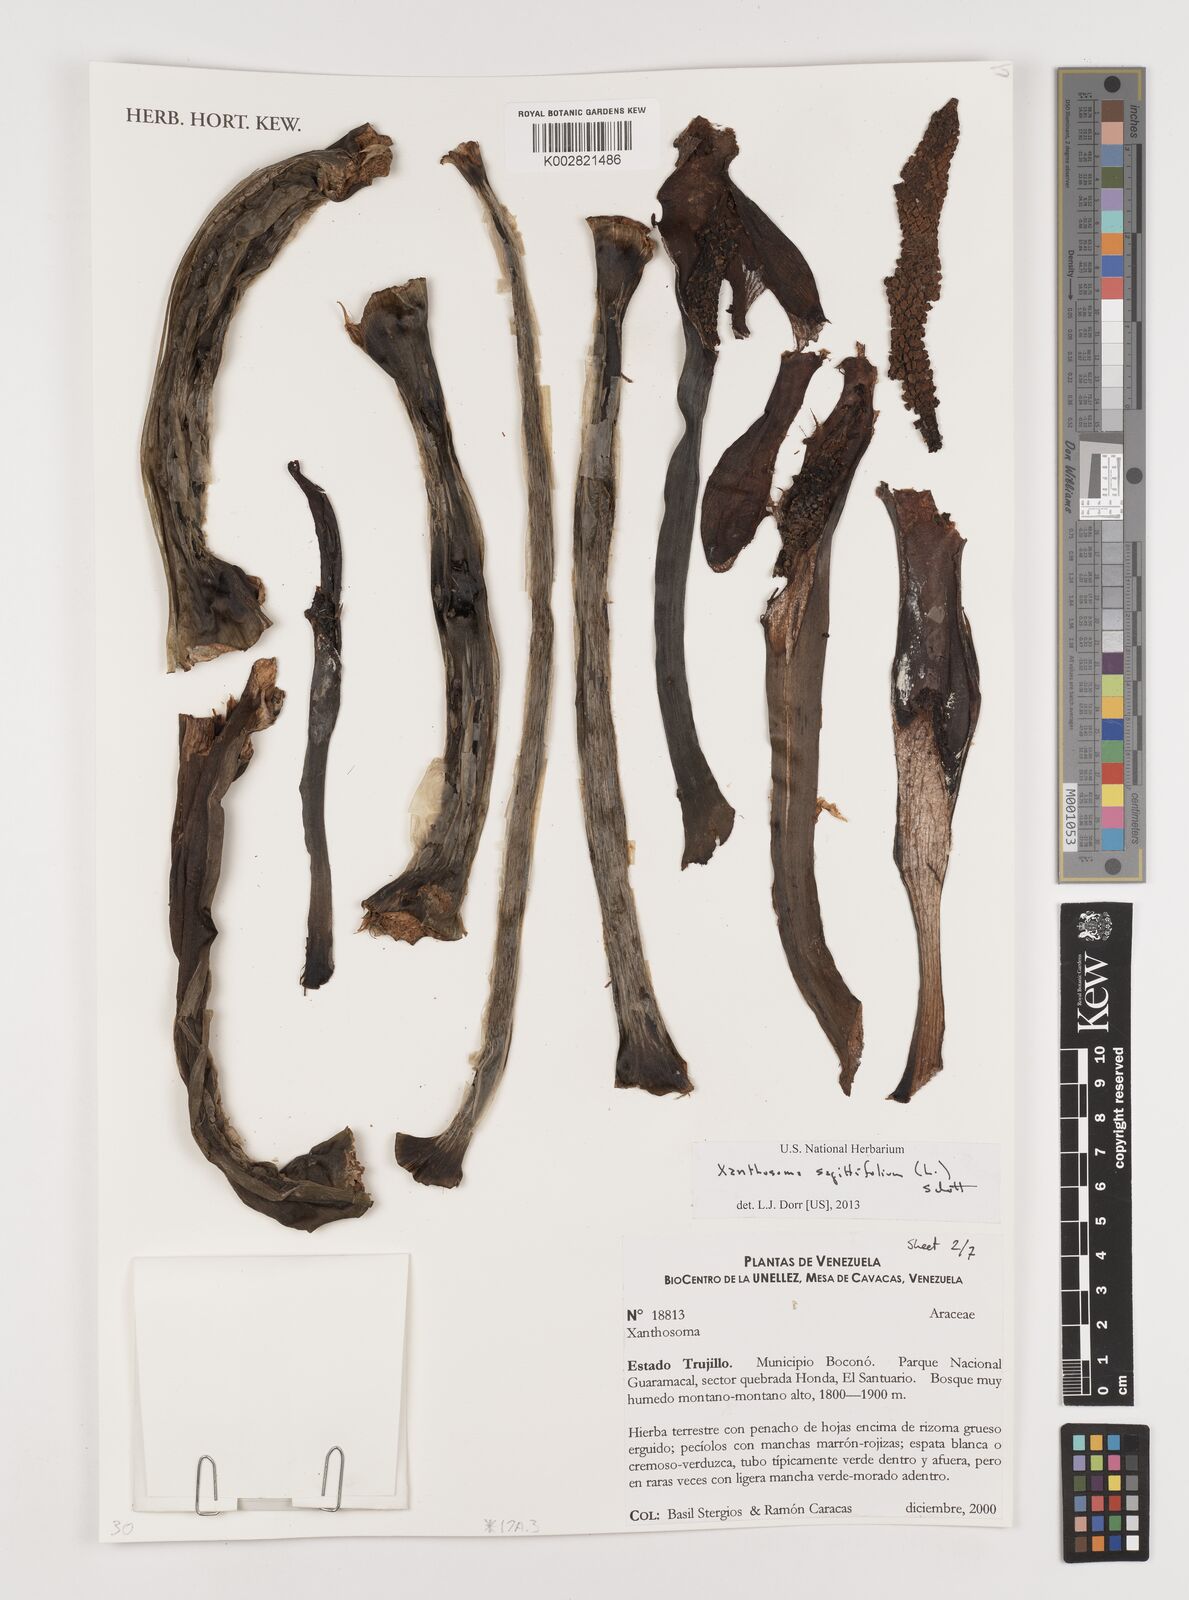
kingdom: Plantae
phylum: Tracheophyta
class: Liliopsida
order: Alismatales
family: Araceae
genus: Xanthosoma
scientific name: Xanthosoma sagittifolium
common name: Arrowleaf elephant's ear
